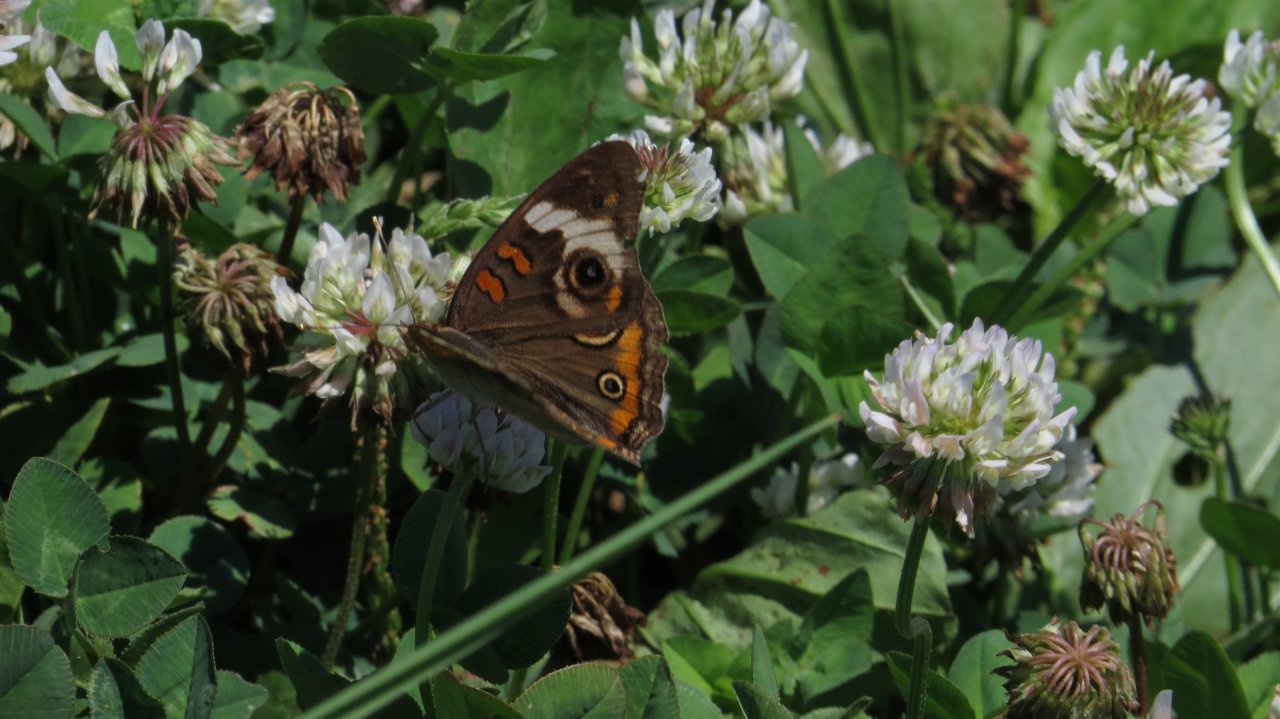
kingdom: Animalia
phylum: Arthropoda
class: Insecta
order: Lepidoptera
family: Nymphalidae
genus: Junonia
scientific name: Junonia coenia
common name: Common Buckeye
